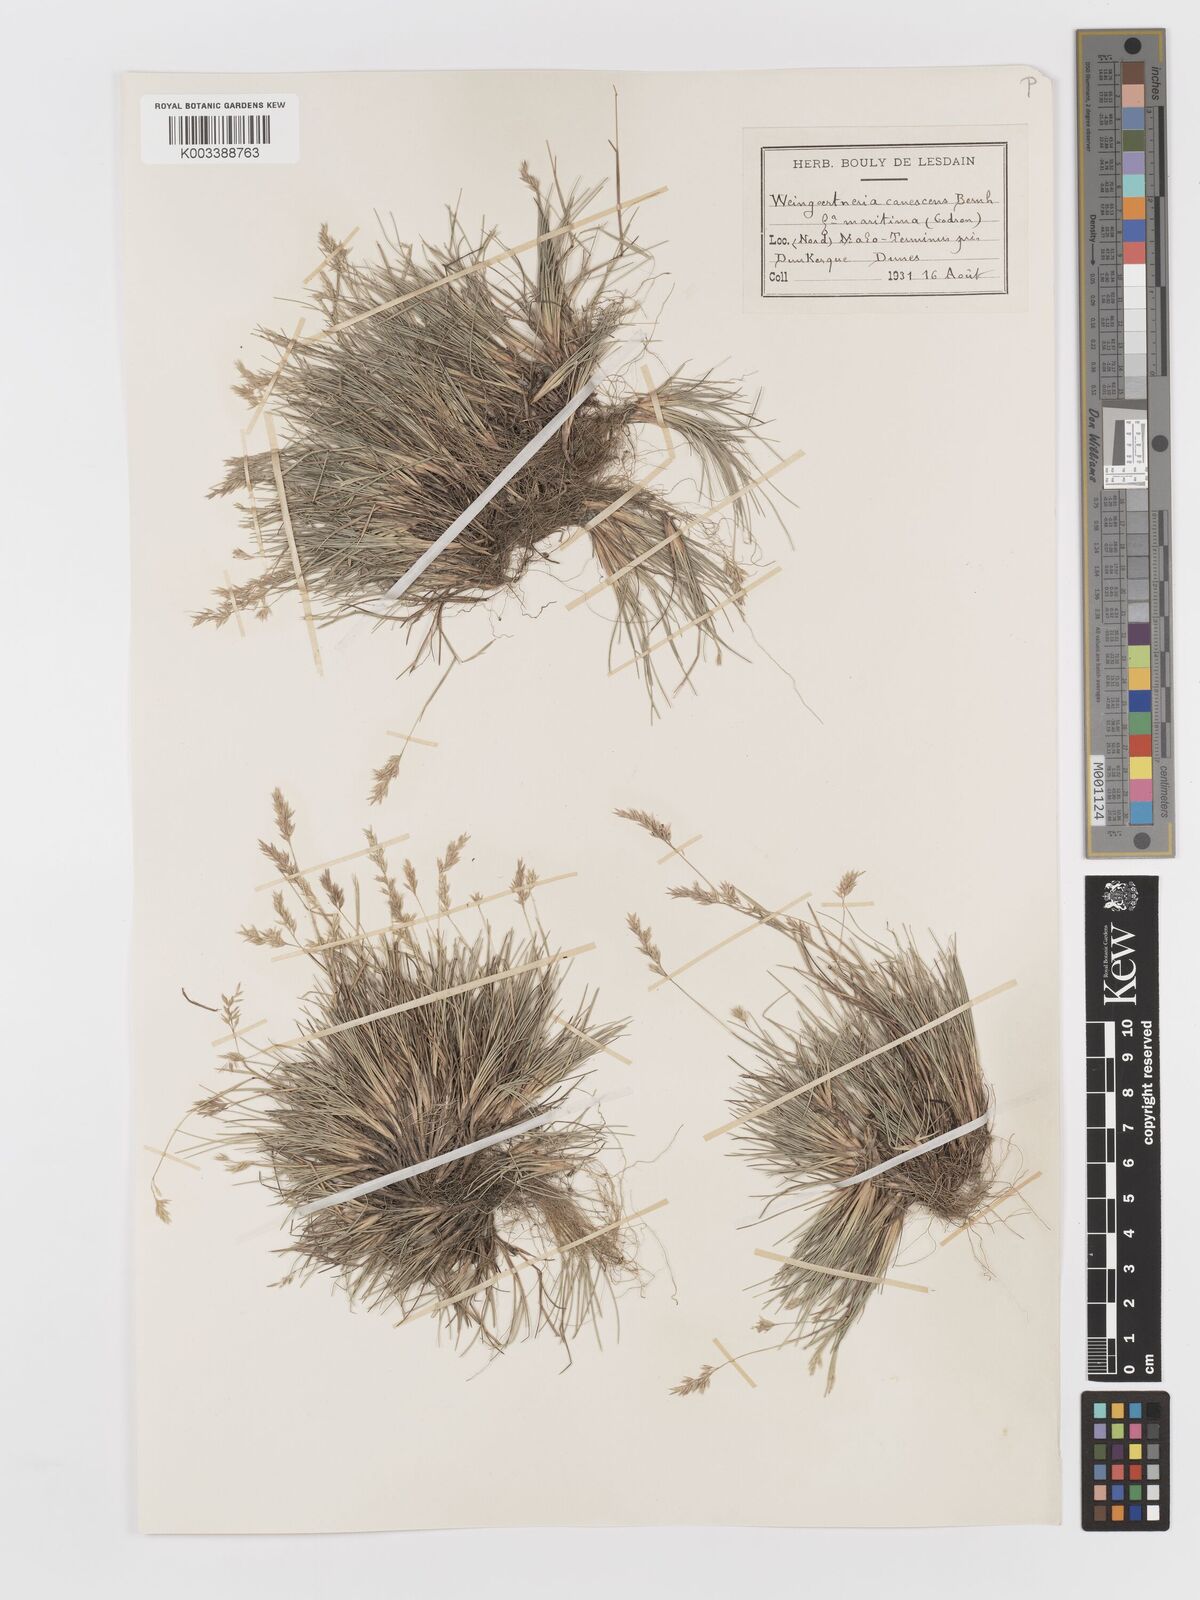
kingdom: Plantae
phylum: Tracheophyta
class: Liliopsida
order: Poales
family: Poaceae
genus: Corynephorus
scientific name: Corynephorus canescens
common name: Grey hair-grass
